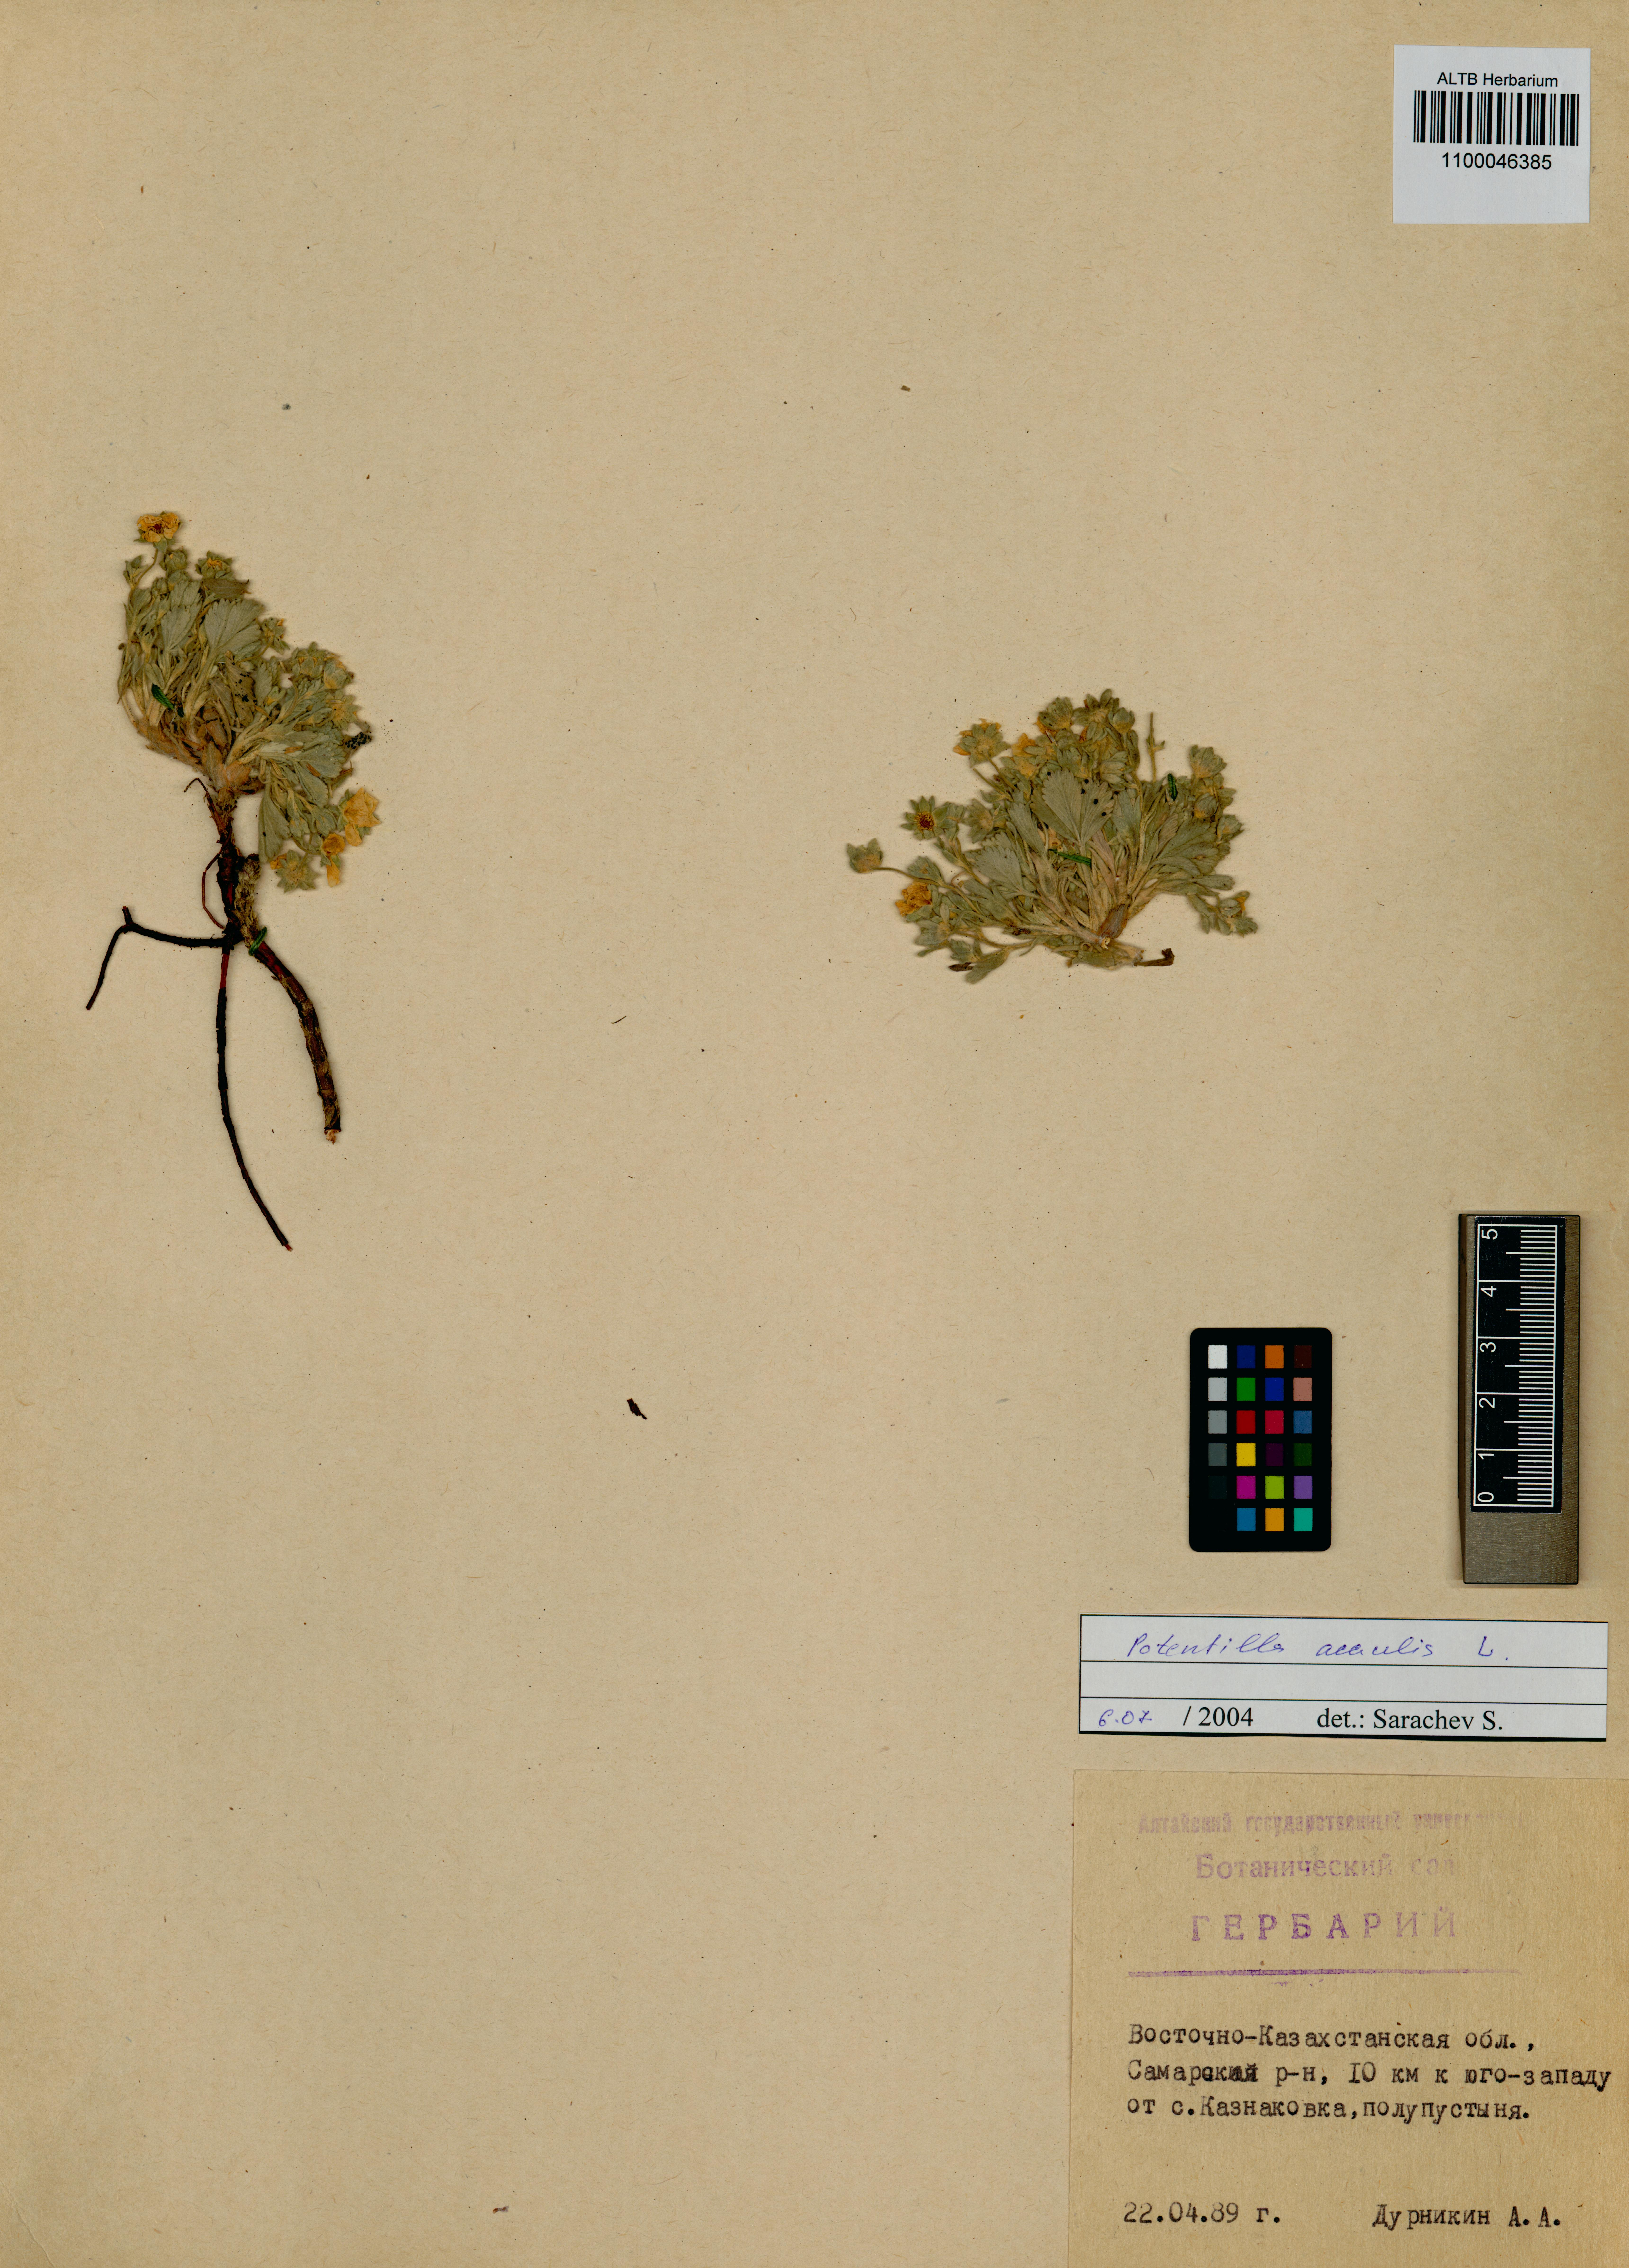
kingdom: Plantae
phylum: Tracheophyta
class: Magnoliopsida
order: Rosales
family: Rosaceae
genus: Potentilla
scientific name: Potentilla acaulis
